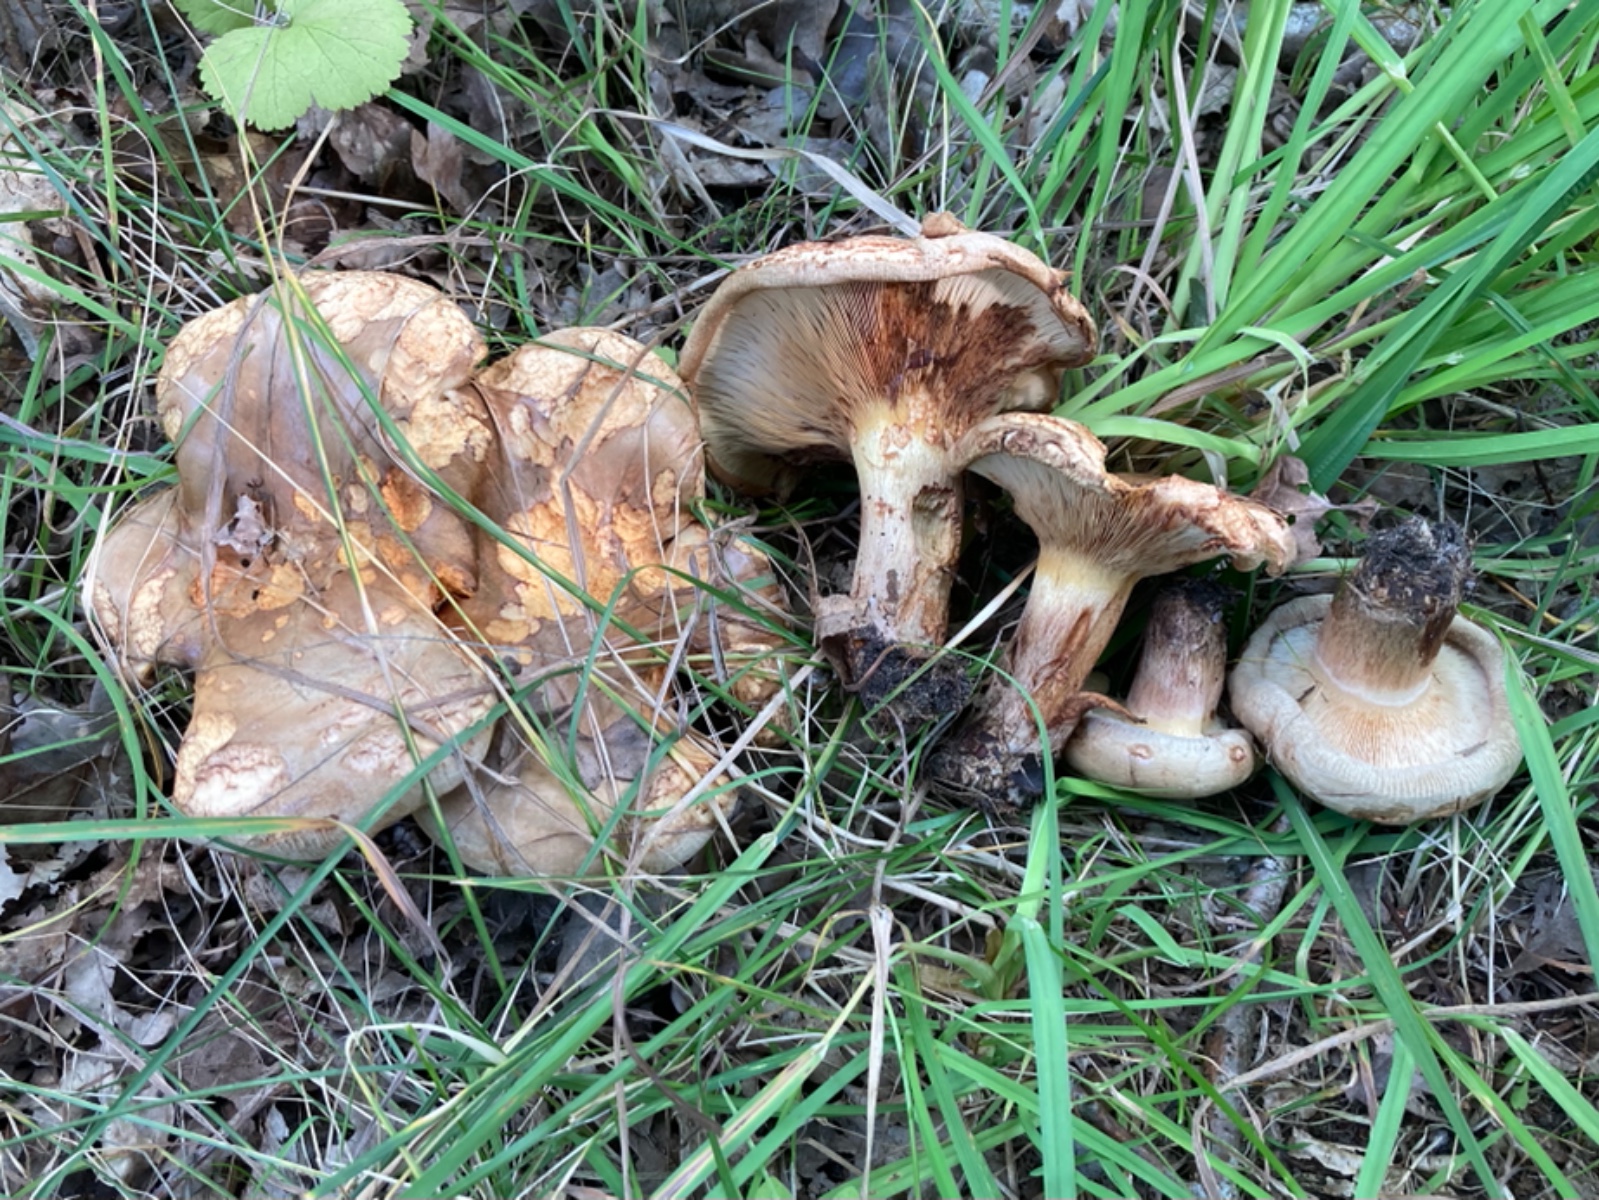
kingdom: Fungi
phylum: Basidiomycota
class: Agaricomycetes
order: Boletales
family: Paxillaceae
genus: Paxillus
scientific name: Paxillus involutus
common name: almindelig netbladhat
